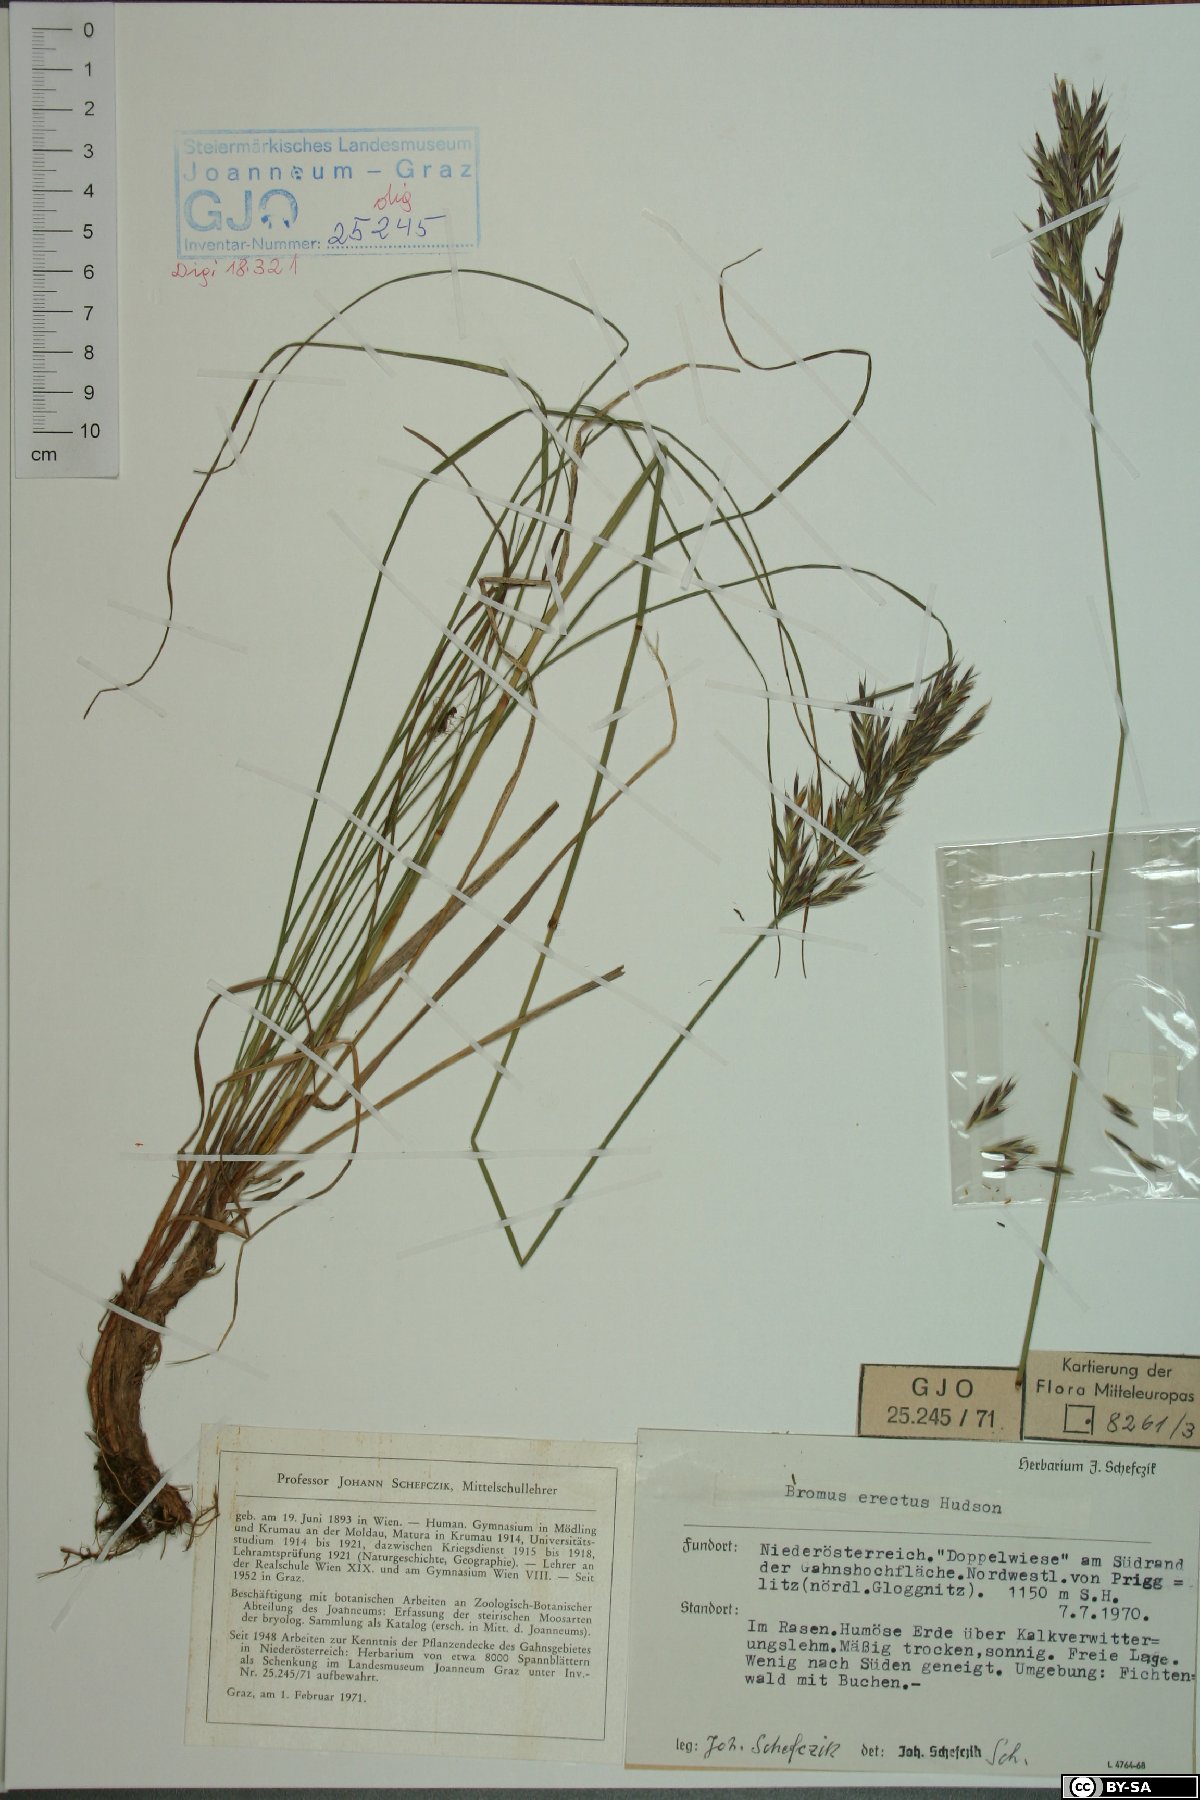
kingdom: Plantae
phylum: Tracheophyta
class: Liliopsida
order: Poales
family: Poaceae
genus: Bromus
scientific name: Bromus erectus
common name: Erect brome
